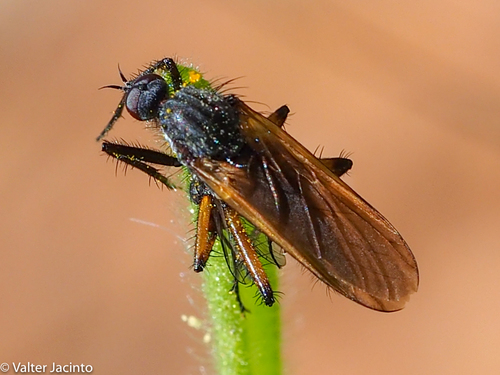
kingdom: Animalia
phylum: Arthropoda
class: Insecta
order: Diptera
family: Empididae
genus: Empis
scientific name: Empis
